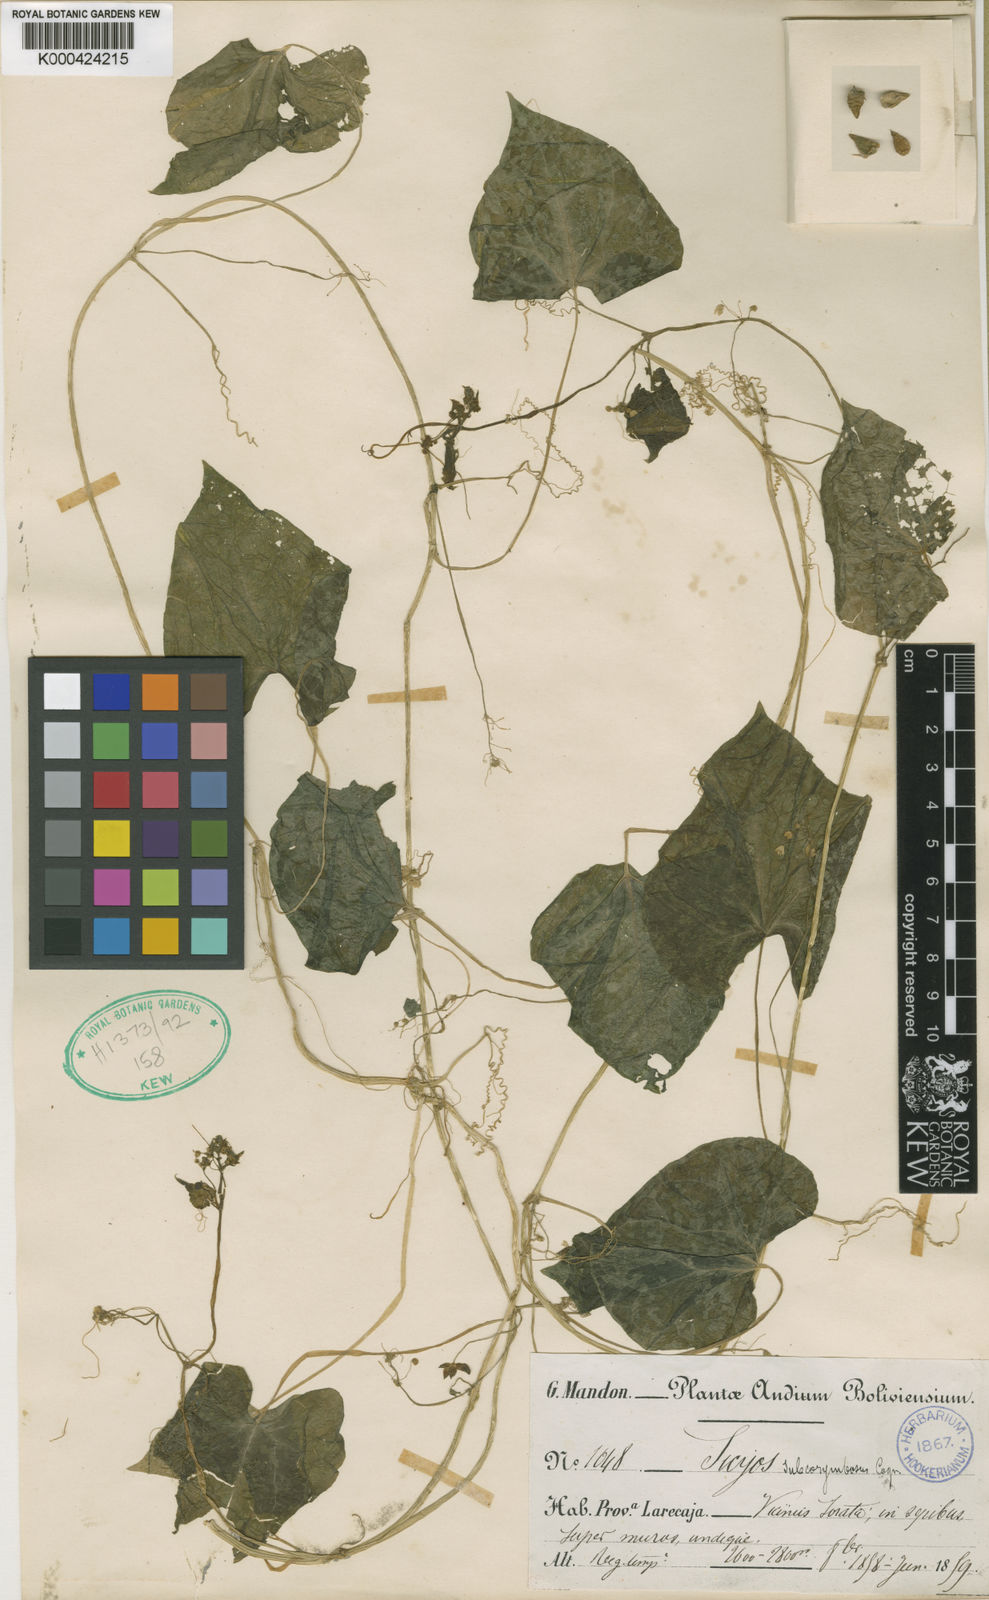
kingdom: Plantae
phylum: Tracheophyta
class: Magnoliopsida
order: Cucurbitales
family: Cucurbitaceae
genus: Sicyos
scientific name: Sicyos montanus
